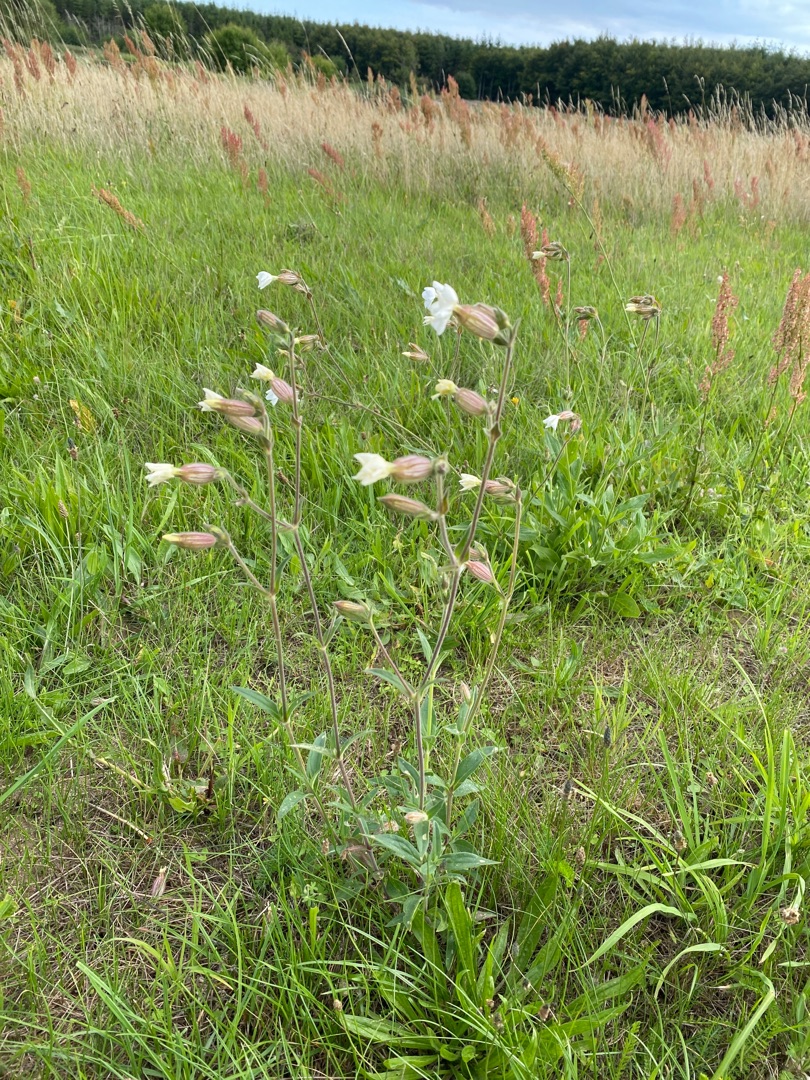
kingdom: Plantae
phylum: Tracheophyta
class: Magnoliopsida
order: Caryophyllales
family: Caryophyllaceae
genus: Silene
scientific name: Silene latifolia
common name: Aftenpragtstjerne
